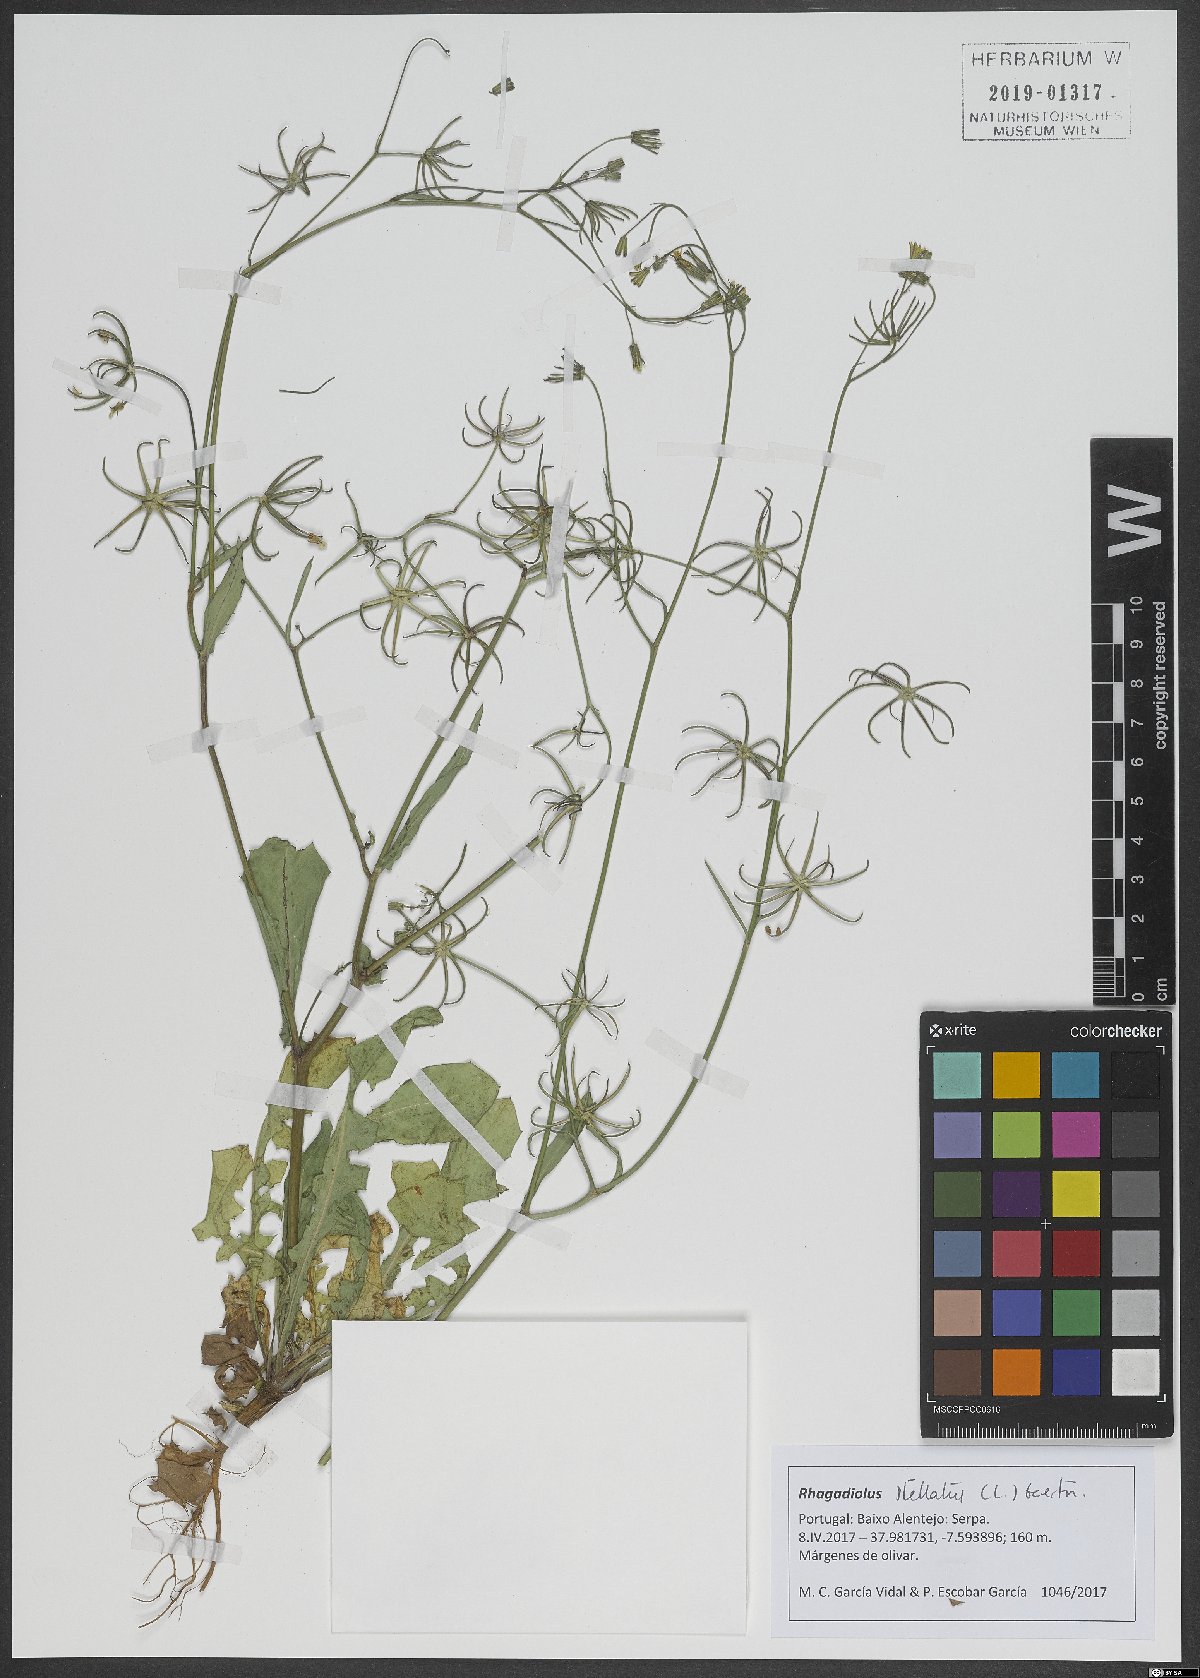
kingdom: Plantae
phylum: Tracheophyta
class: Magnoliopsida
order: Asterales
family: Asteraceae
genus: Rhagadiolus
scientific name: Rhagadiolus stellatus
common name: Star hawkbit
